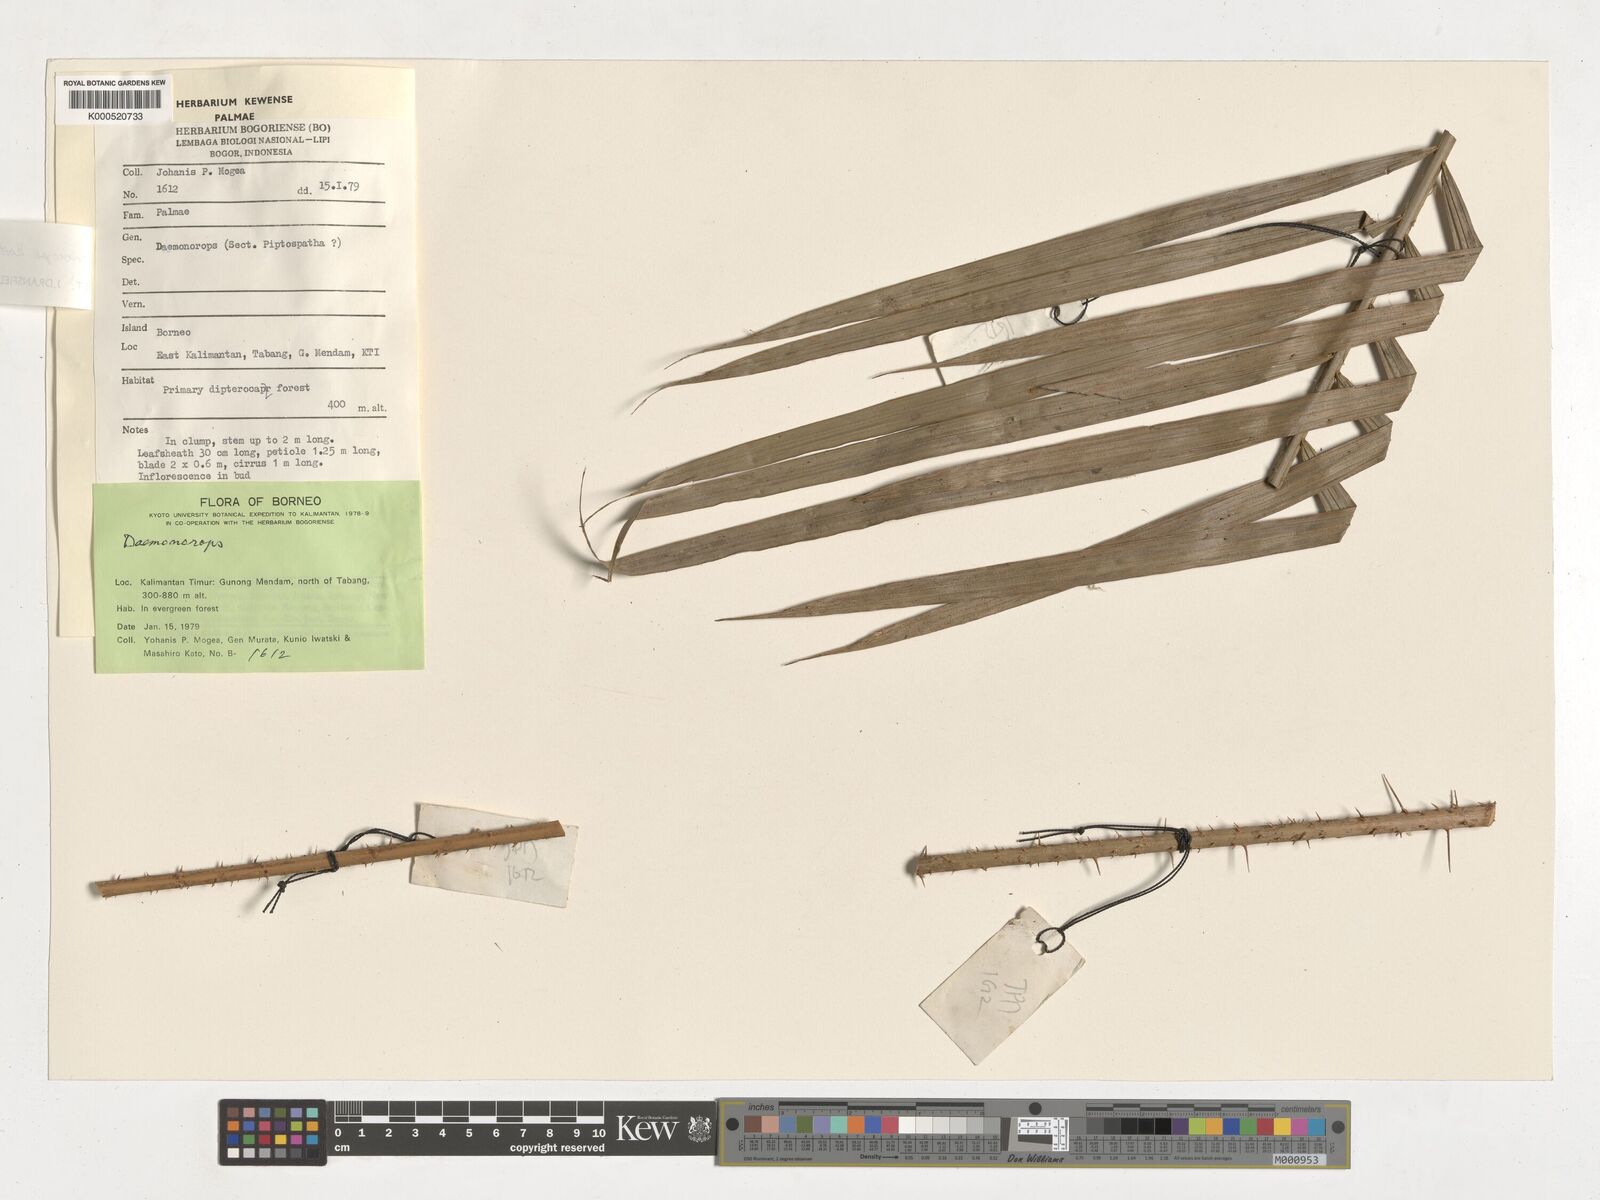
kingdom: Plantae
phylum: Tracheophyta
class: Liliopsida
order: Arecales
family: Arecaceae
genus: Calamus
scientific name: Calamus hirsutus
